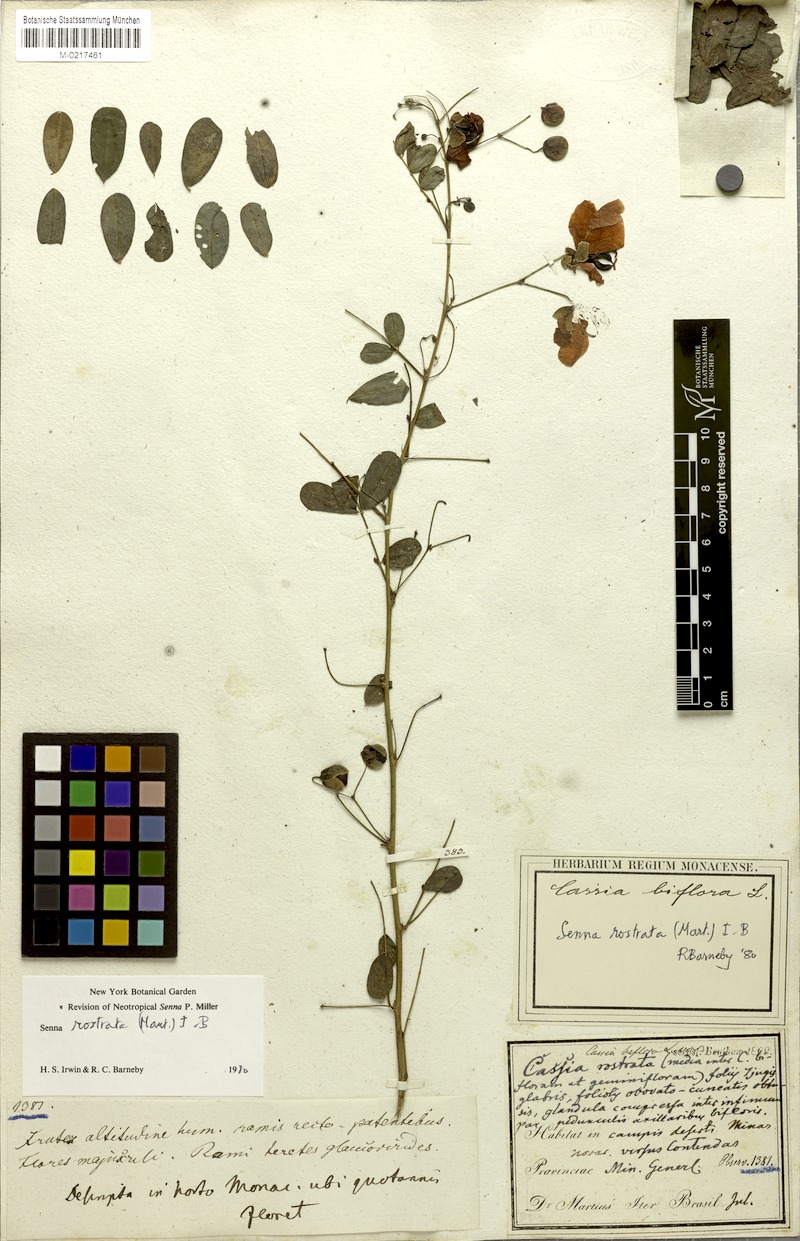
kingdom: Plantae
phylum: Tracheophyta
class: Magnoliopsida
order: Fabales
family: Fabaceae
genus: Senna
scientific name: Senna rostrata
